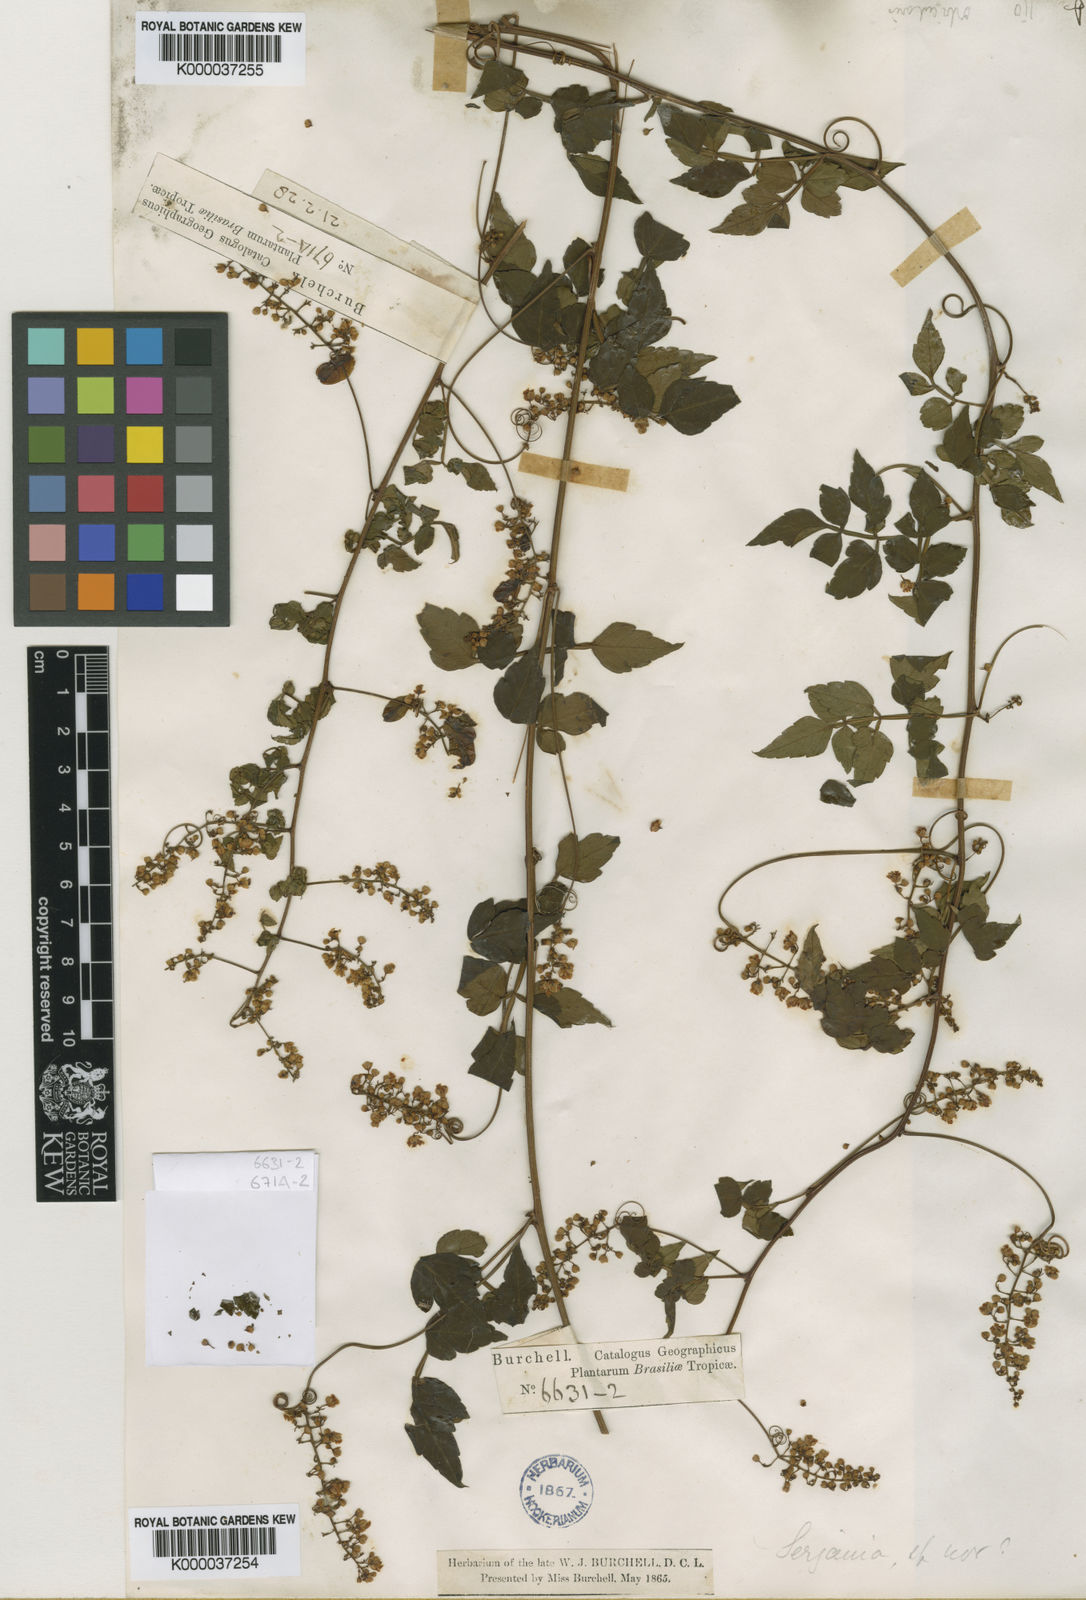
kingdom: Plantae
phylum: Tracheophyta
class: Magnoliopsida
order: Sapindales
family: Sapindaceae
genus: Serjania
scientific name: Serjania orbicularis
